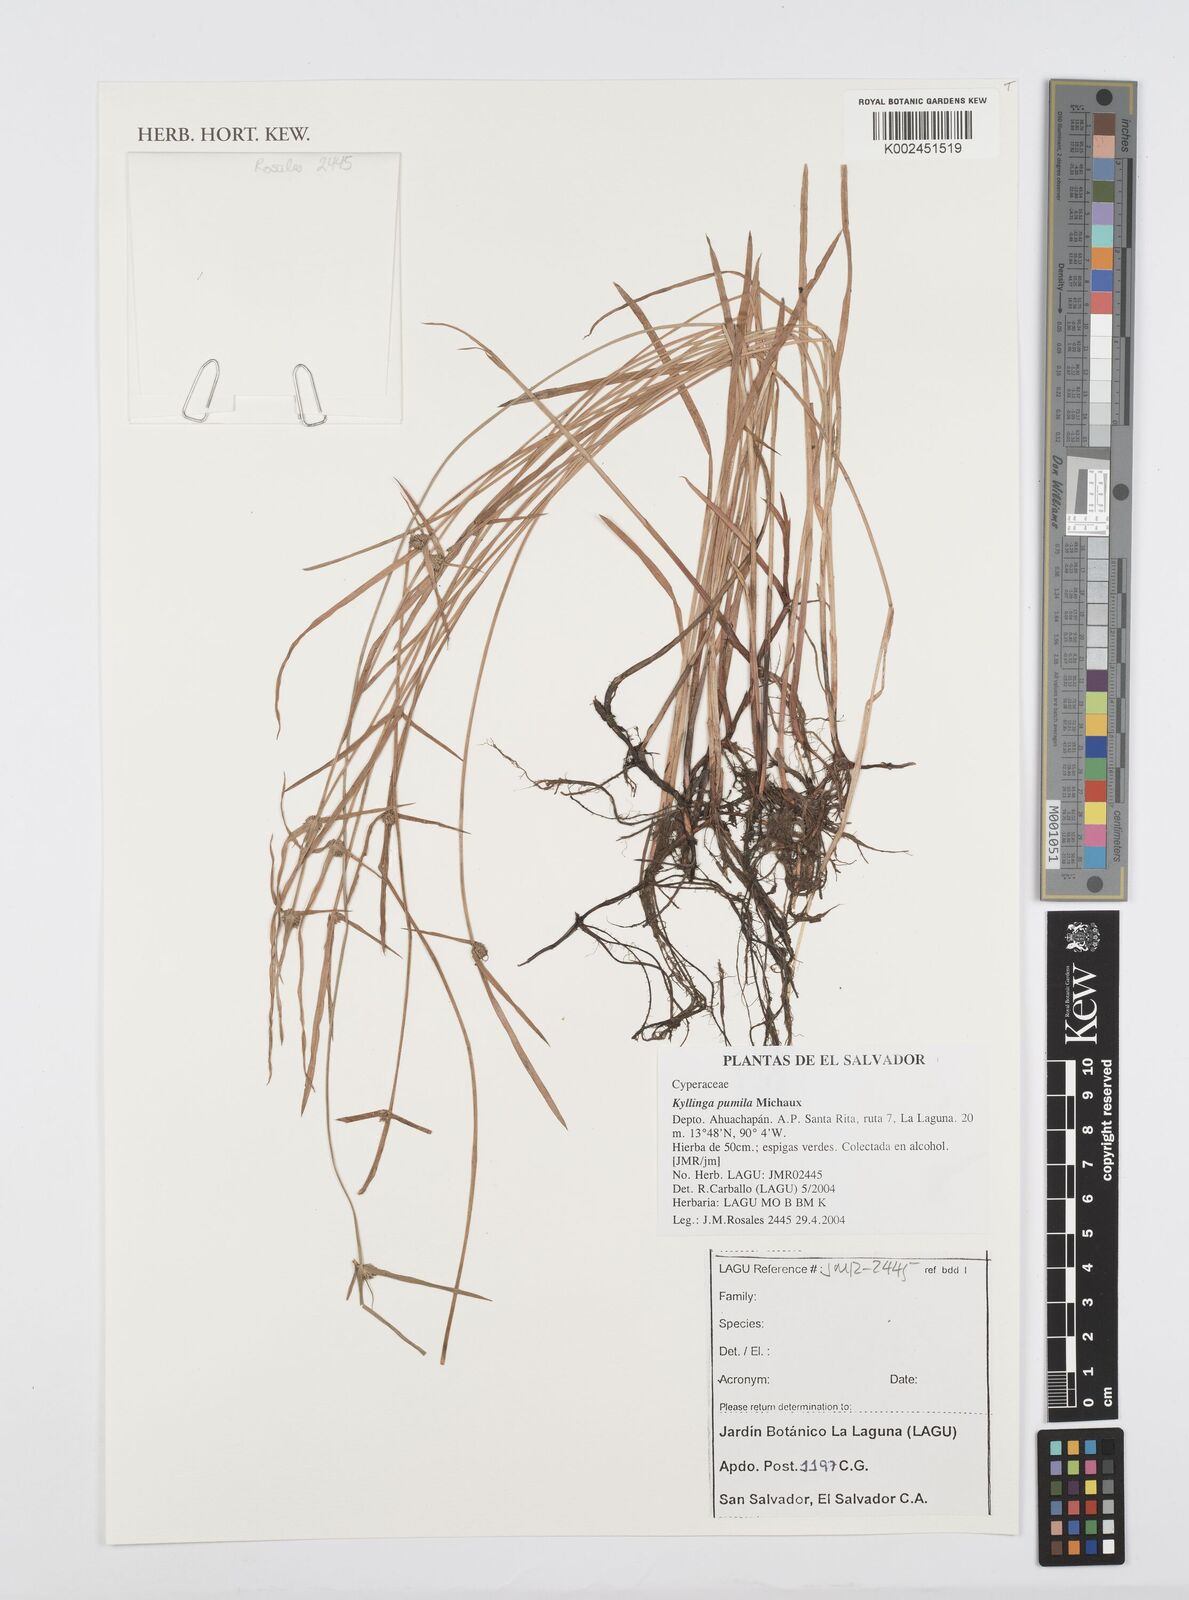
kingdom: Plantae
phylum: Tracheophyta
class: Liliopsida
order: Poales
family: Cyperaceae
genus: Cyperus
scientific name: Cyperus hortensis
